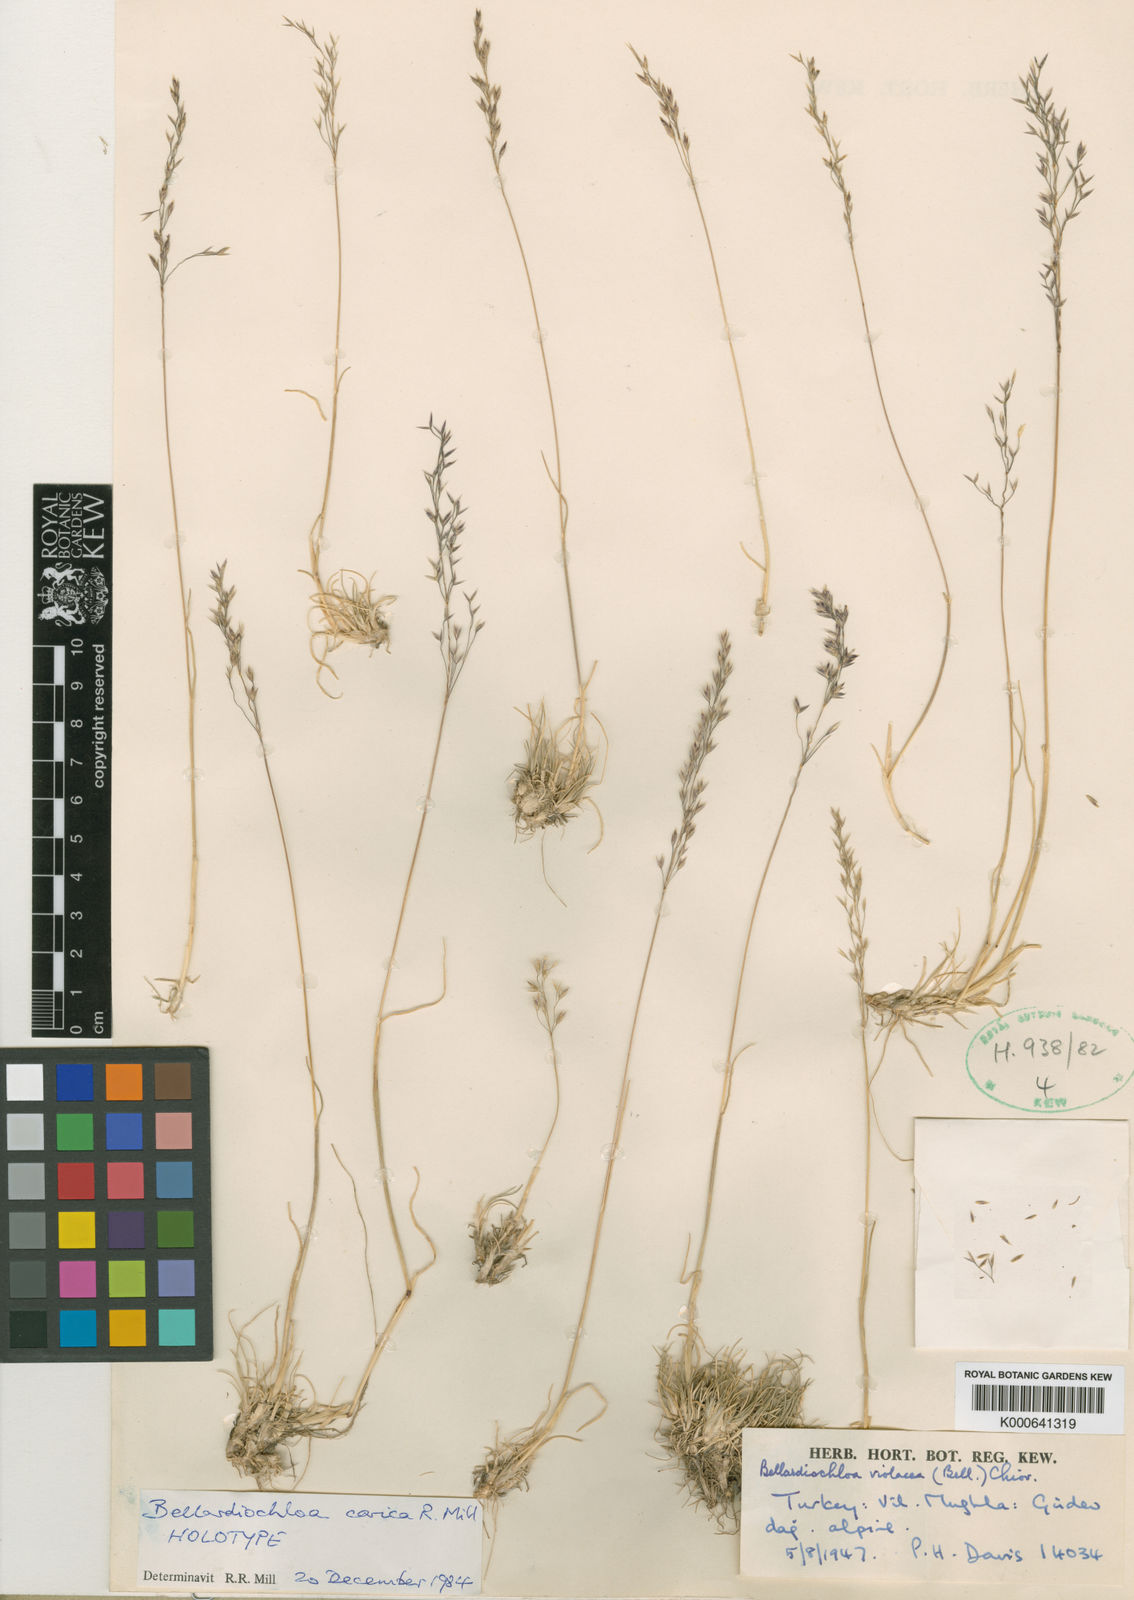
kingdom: Plantae
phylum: Tracheophyta
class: Liliopsida
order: Poales
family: Poaceae
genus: Poa
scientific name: Poa
